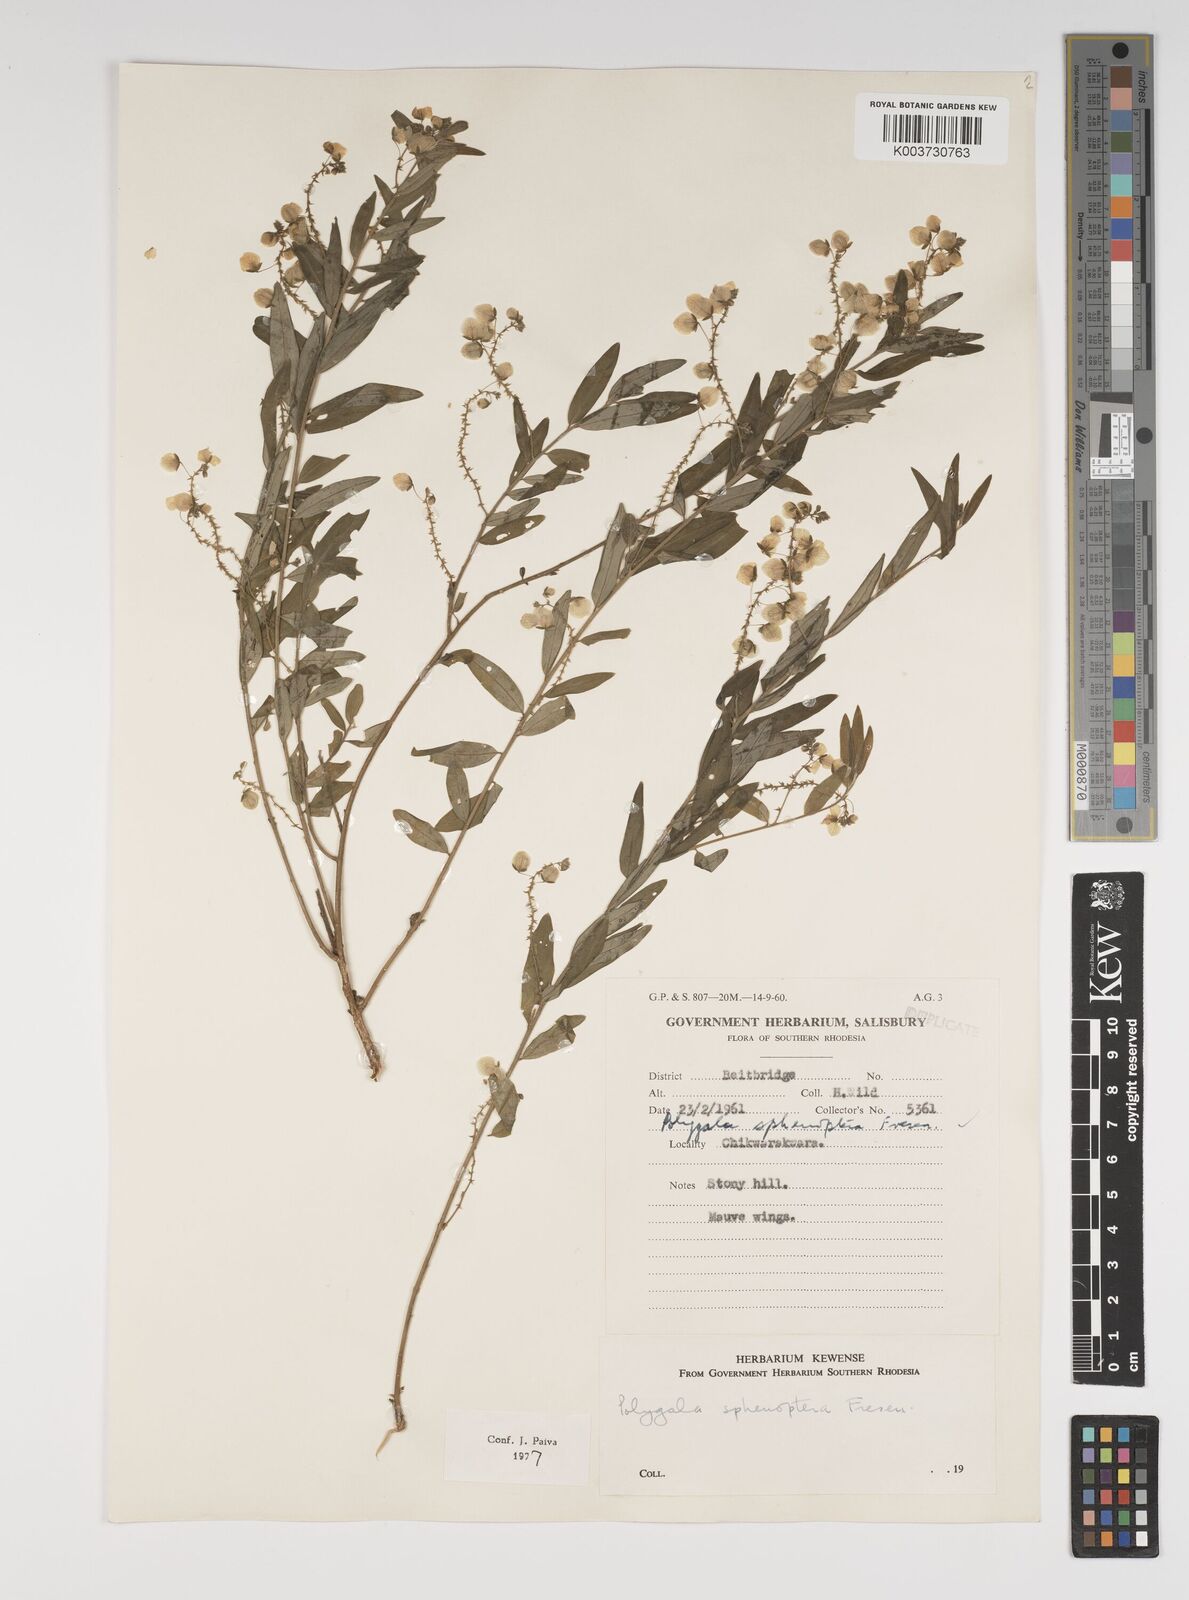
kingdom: Plantae
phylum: Tracheophyta
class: Magnoliopsida
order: Fabales
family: Polygalaceae
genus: Polygala
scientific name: Polygala sphenoptera
